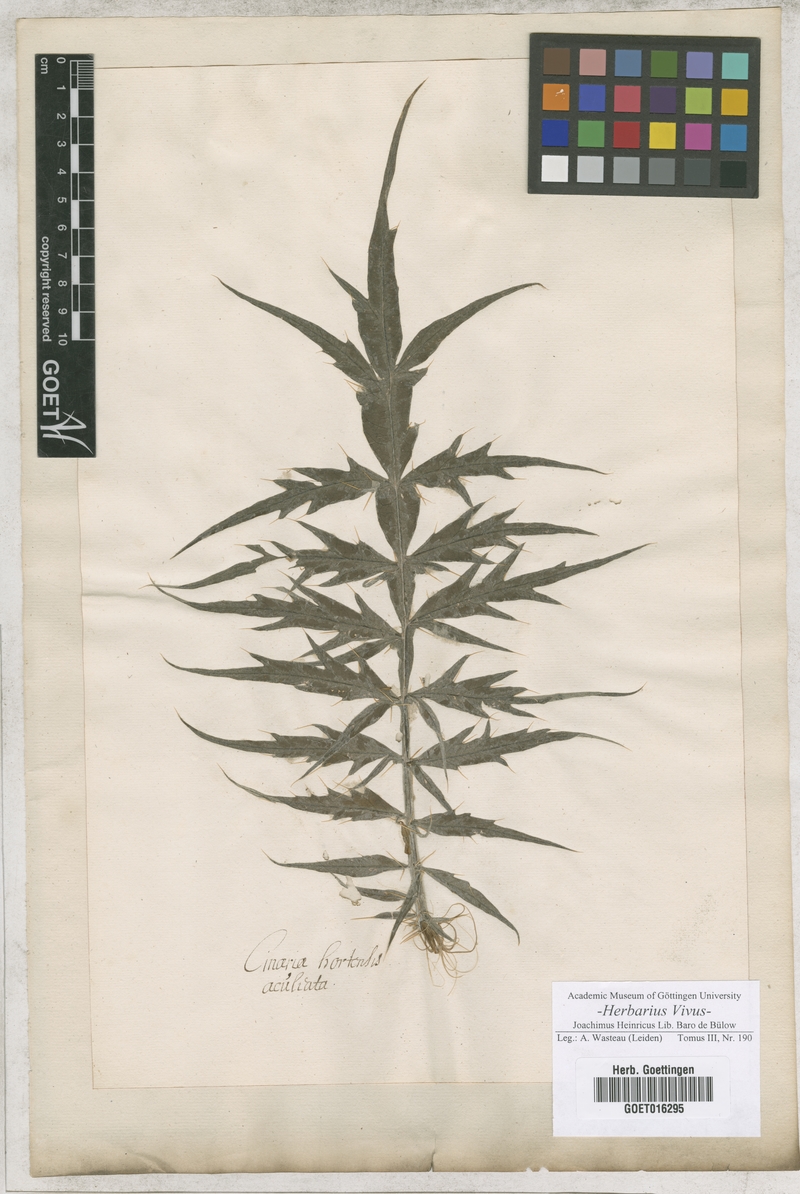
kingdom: Plantae
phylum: Tracheophyta
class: Magnoliopsida
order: Asterales
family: Asteraceae
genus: Cynara
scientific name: Cynara scolymus
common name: Globe artichoke
